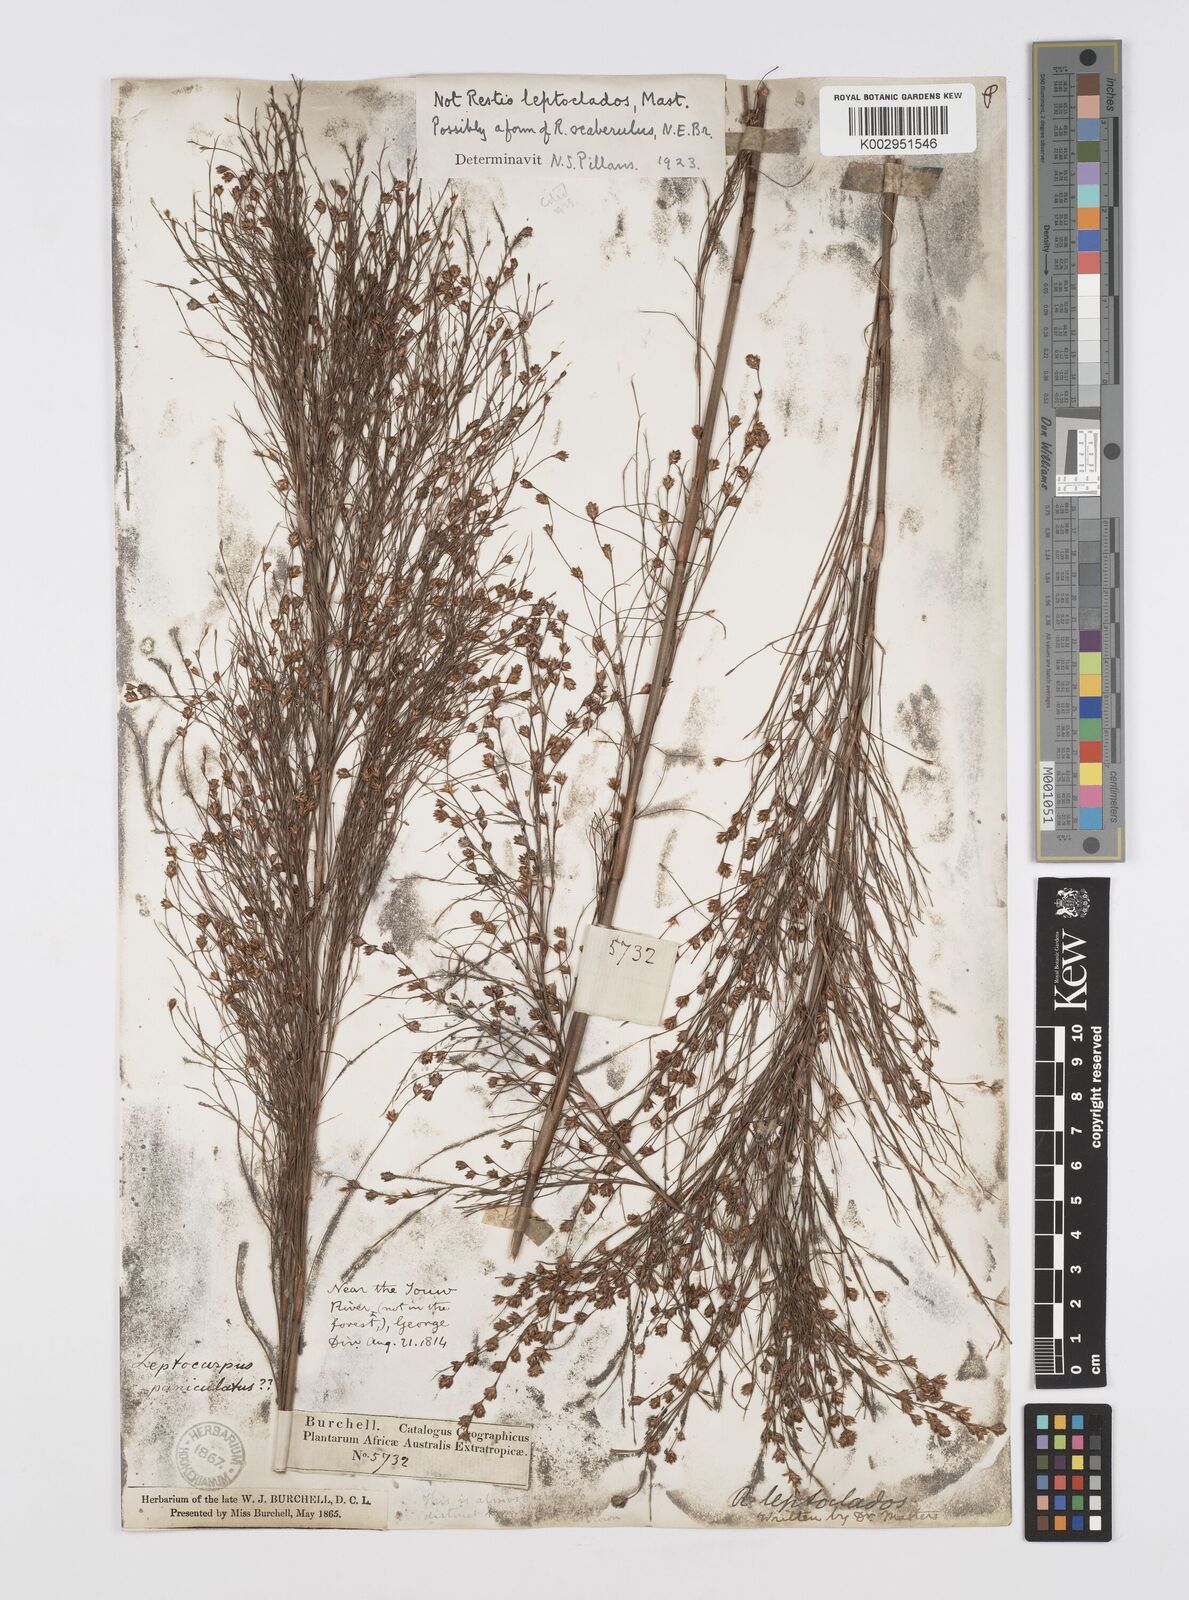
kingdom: Plantae
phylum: Tracheophyta
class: Liliopsida
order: Poales
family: Restionaceae
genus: Restio
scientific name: Restio scaberulus
